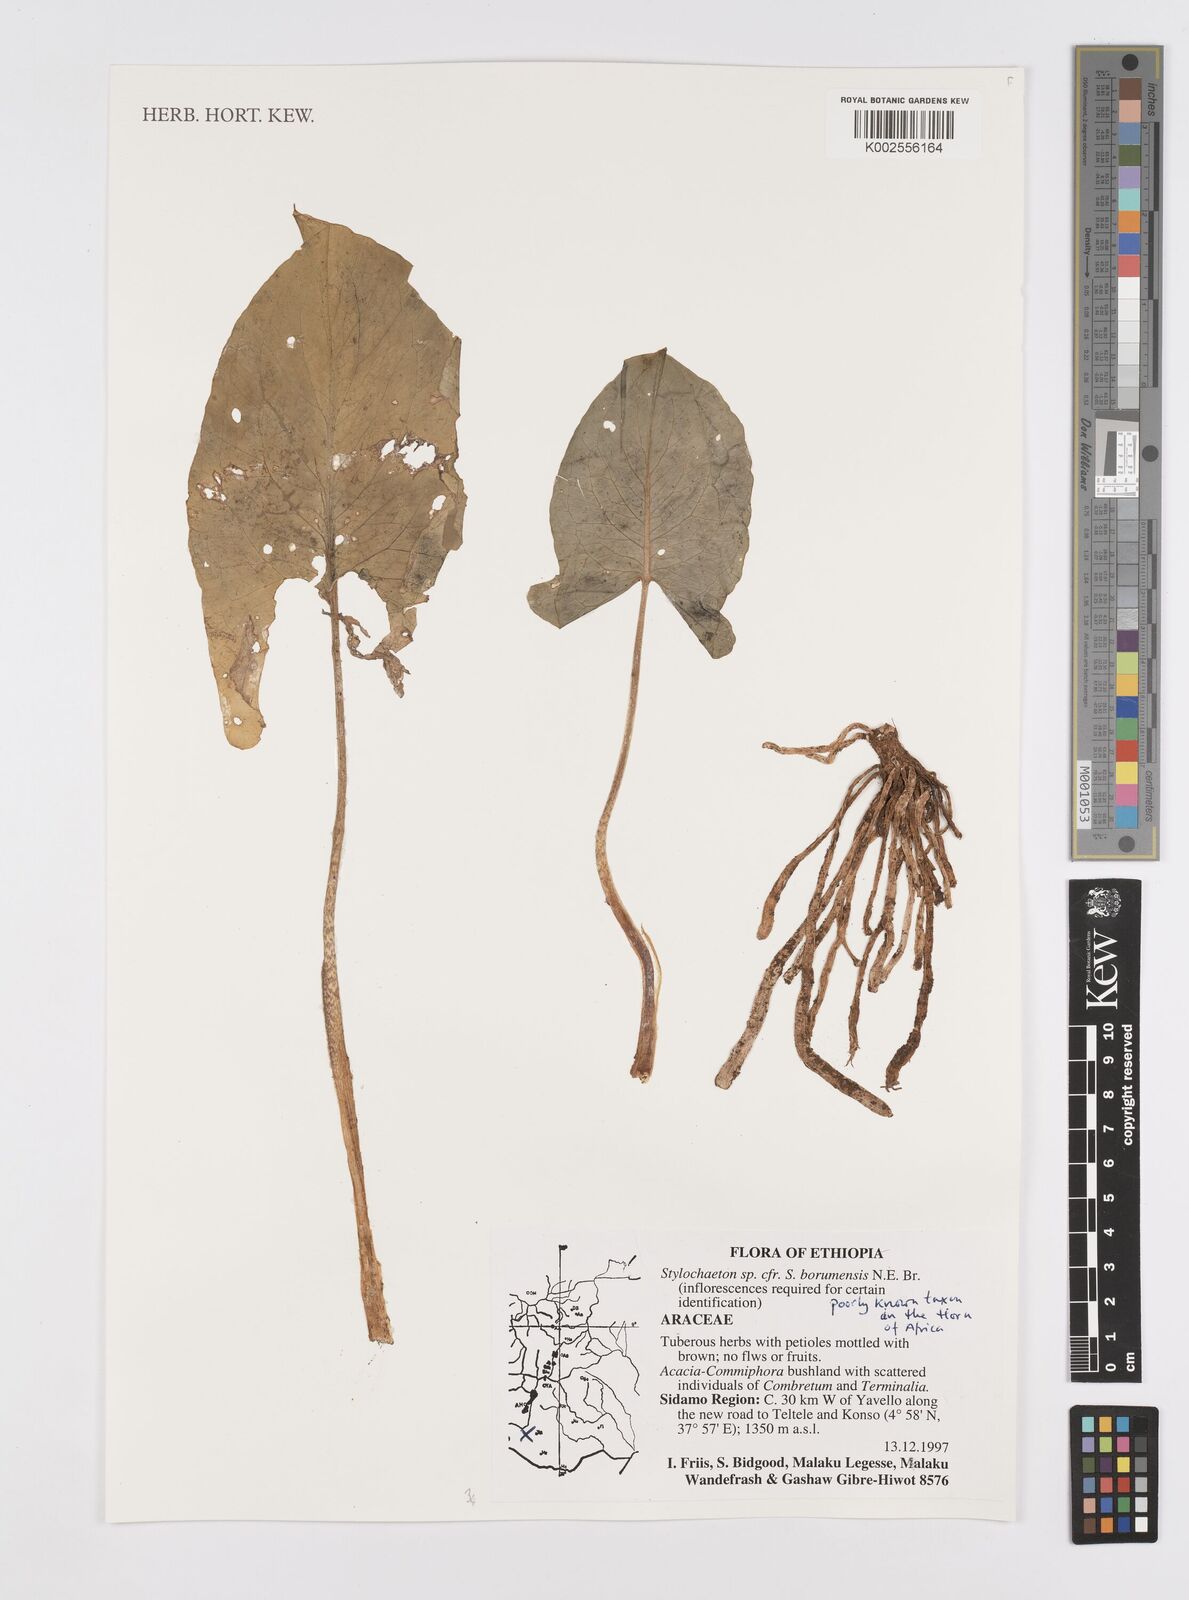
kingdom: Plantae
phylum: Tracheophyta
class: Liliopsida
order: Alismatales
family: Araceae
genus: Stylochaeton
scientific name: Stylochaeton borumense
